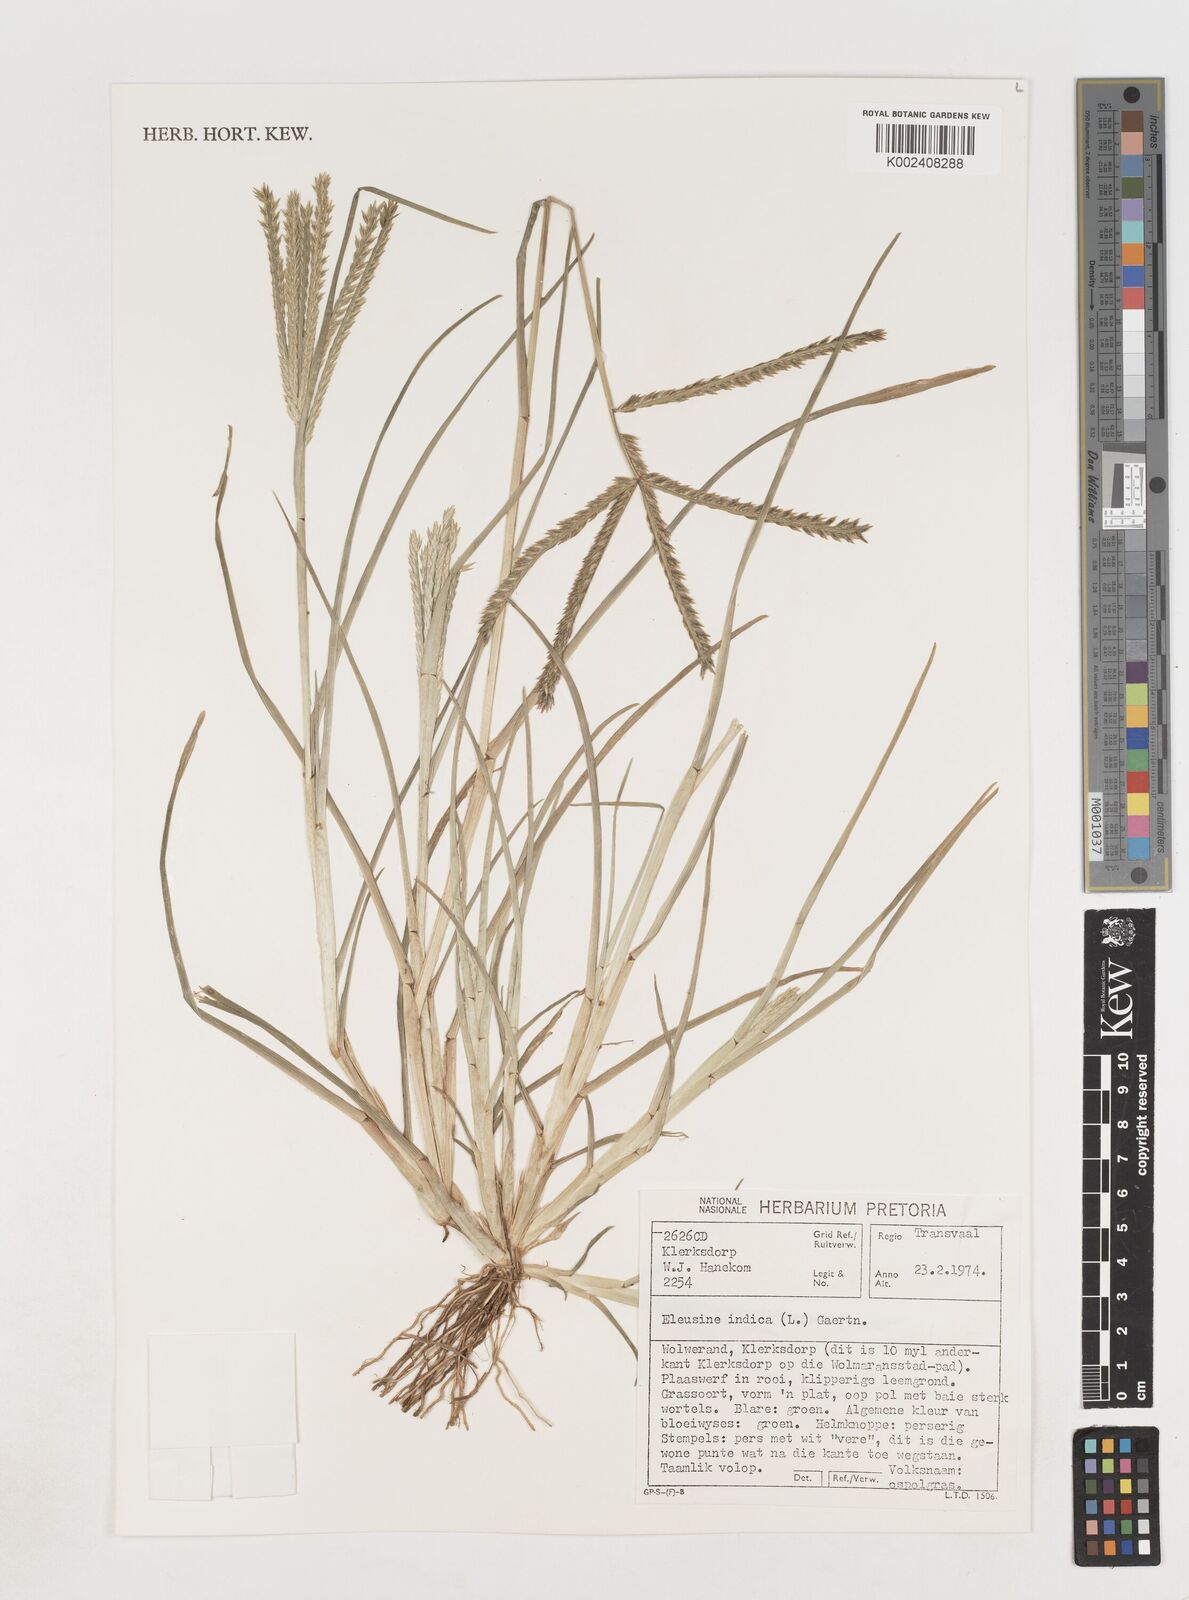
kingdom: Plantae
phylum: Tracheophyta
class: Liliopsida
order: Poales
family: Poaceae
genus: Eleusine
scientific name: Eleusine africana
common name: Wild african finger millet
